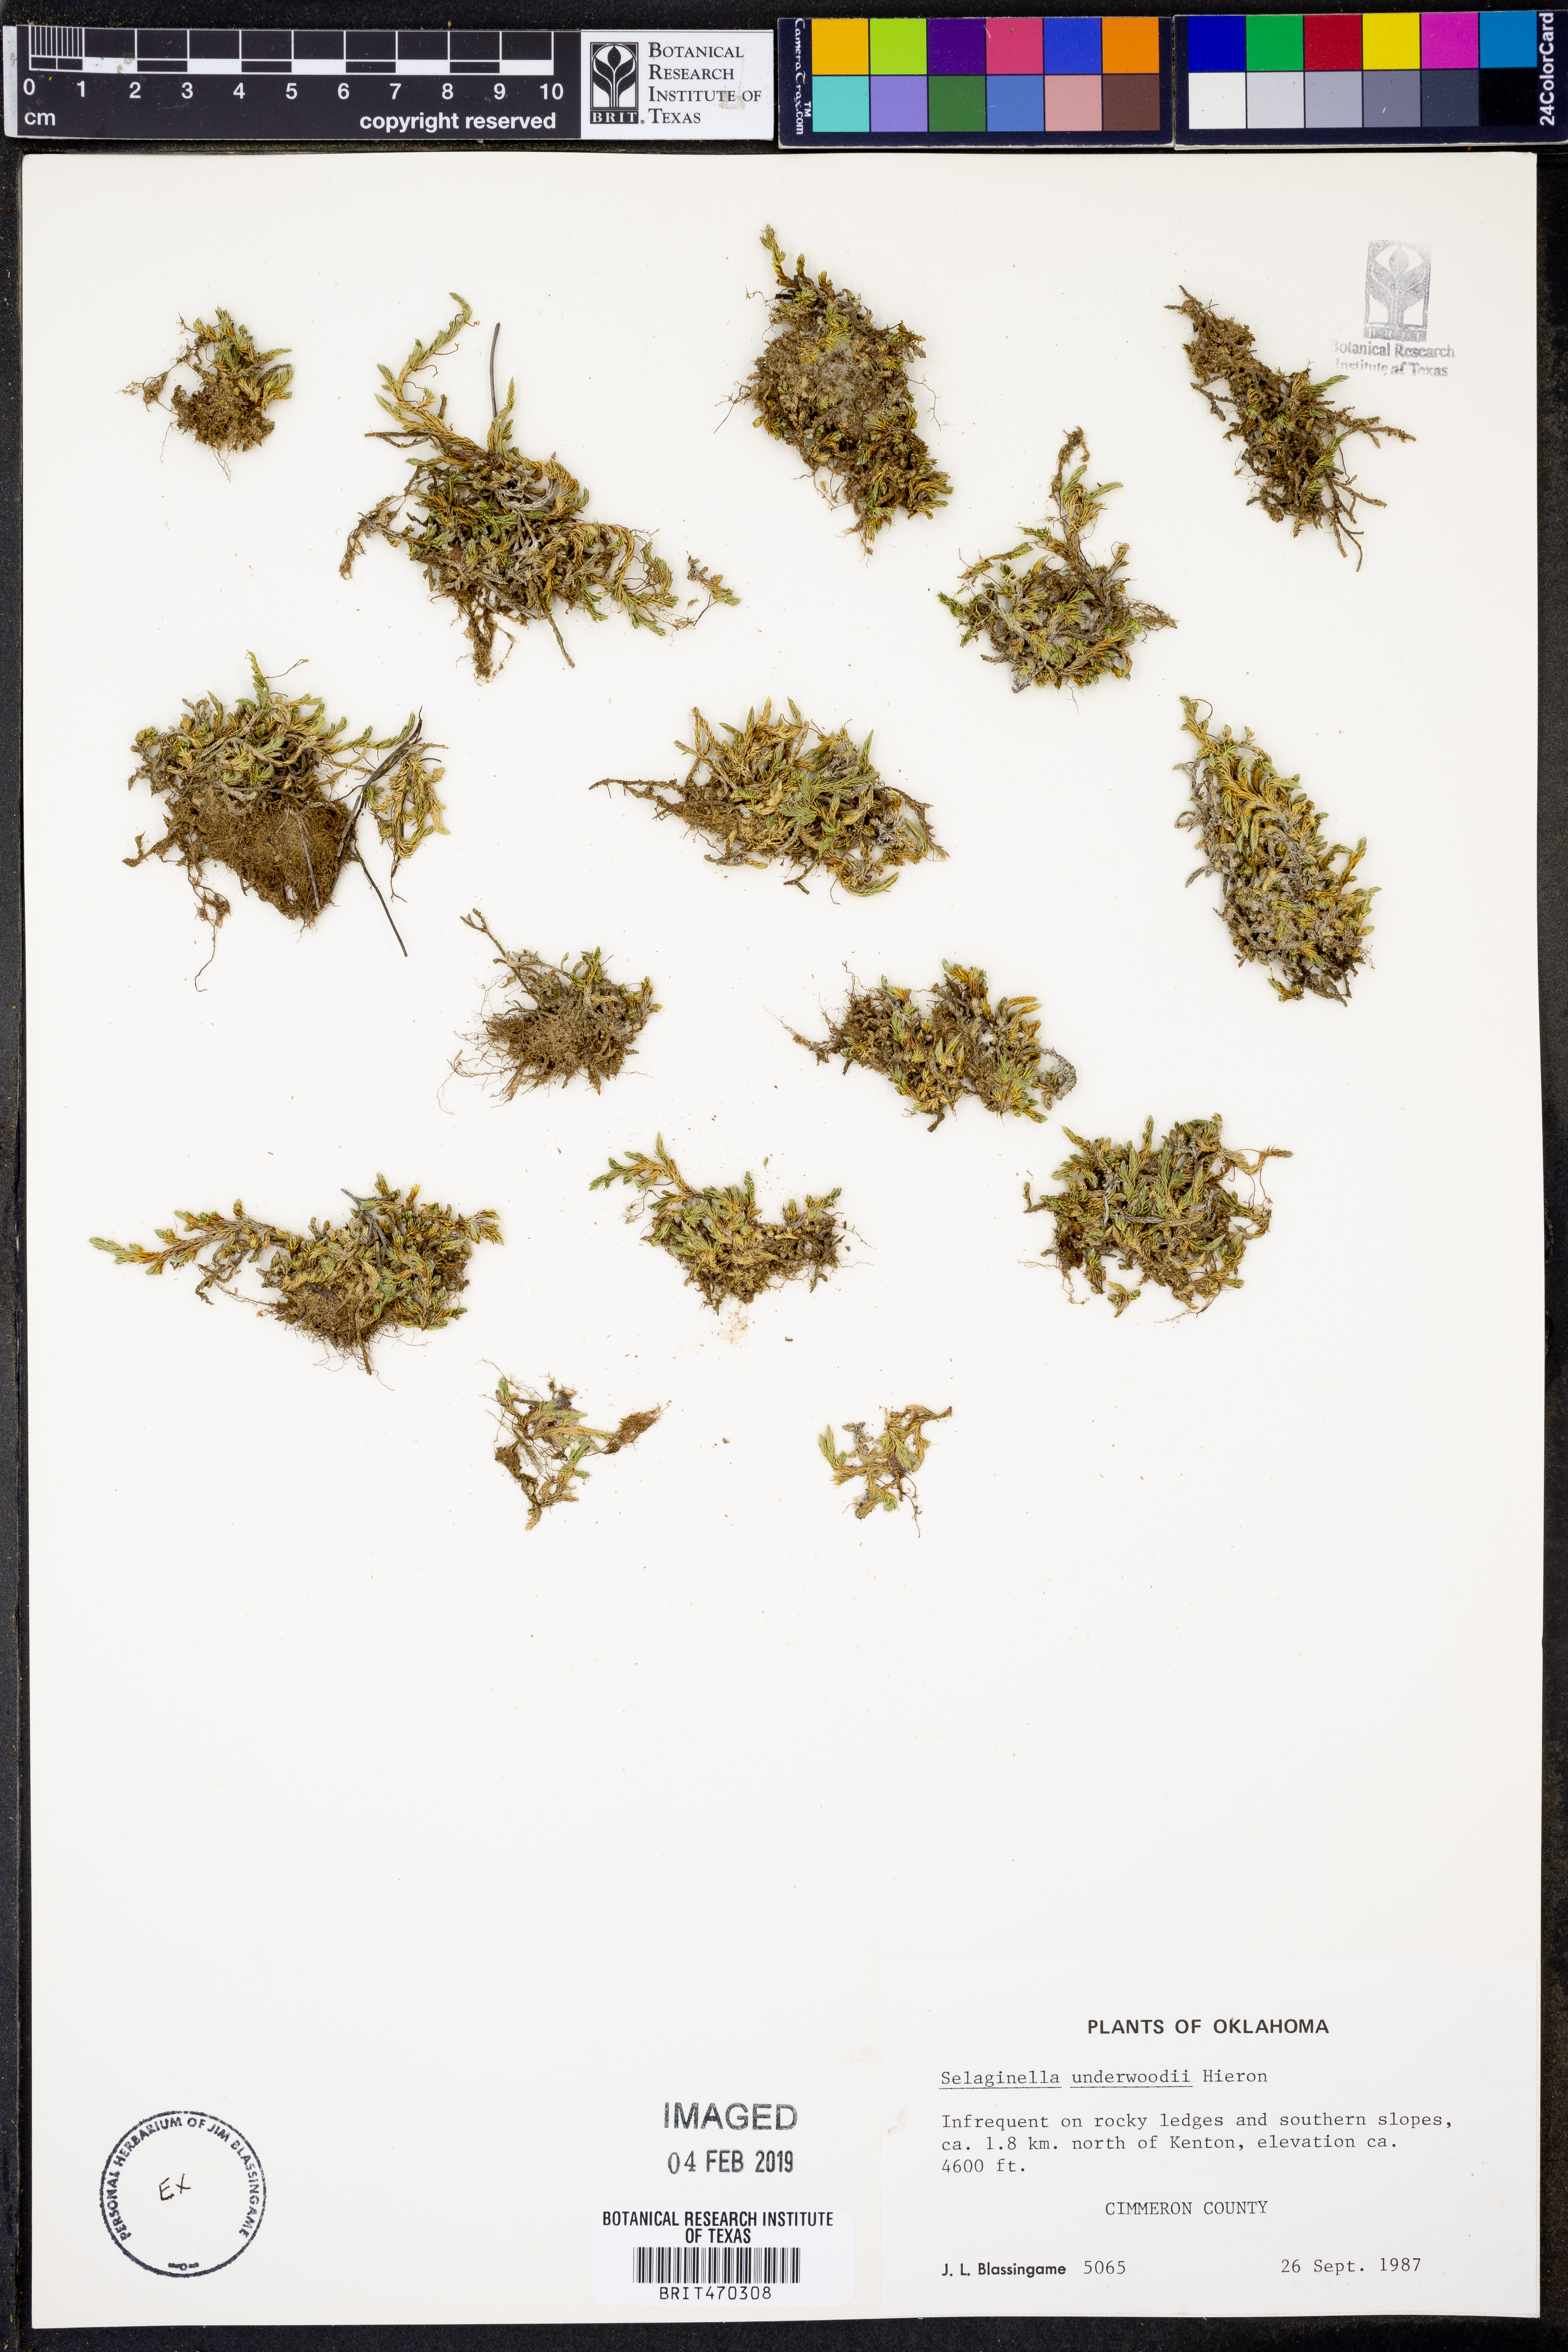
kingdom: Plantae
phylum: Tracheophyta
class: Lycopodiopsida
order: Selaginellales
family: Selaginellaceae
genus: Selaginella
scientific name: Selaginella underwoodii
